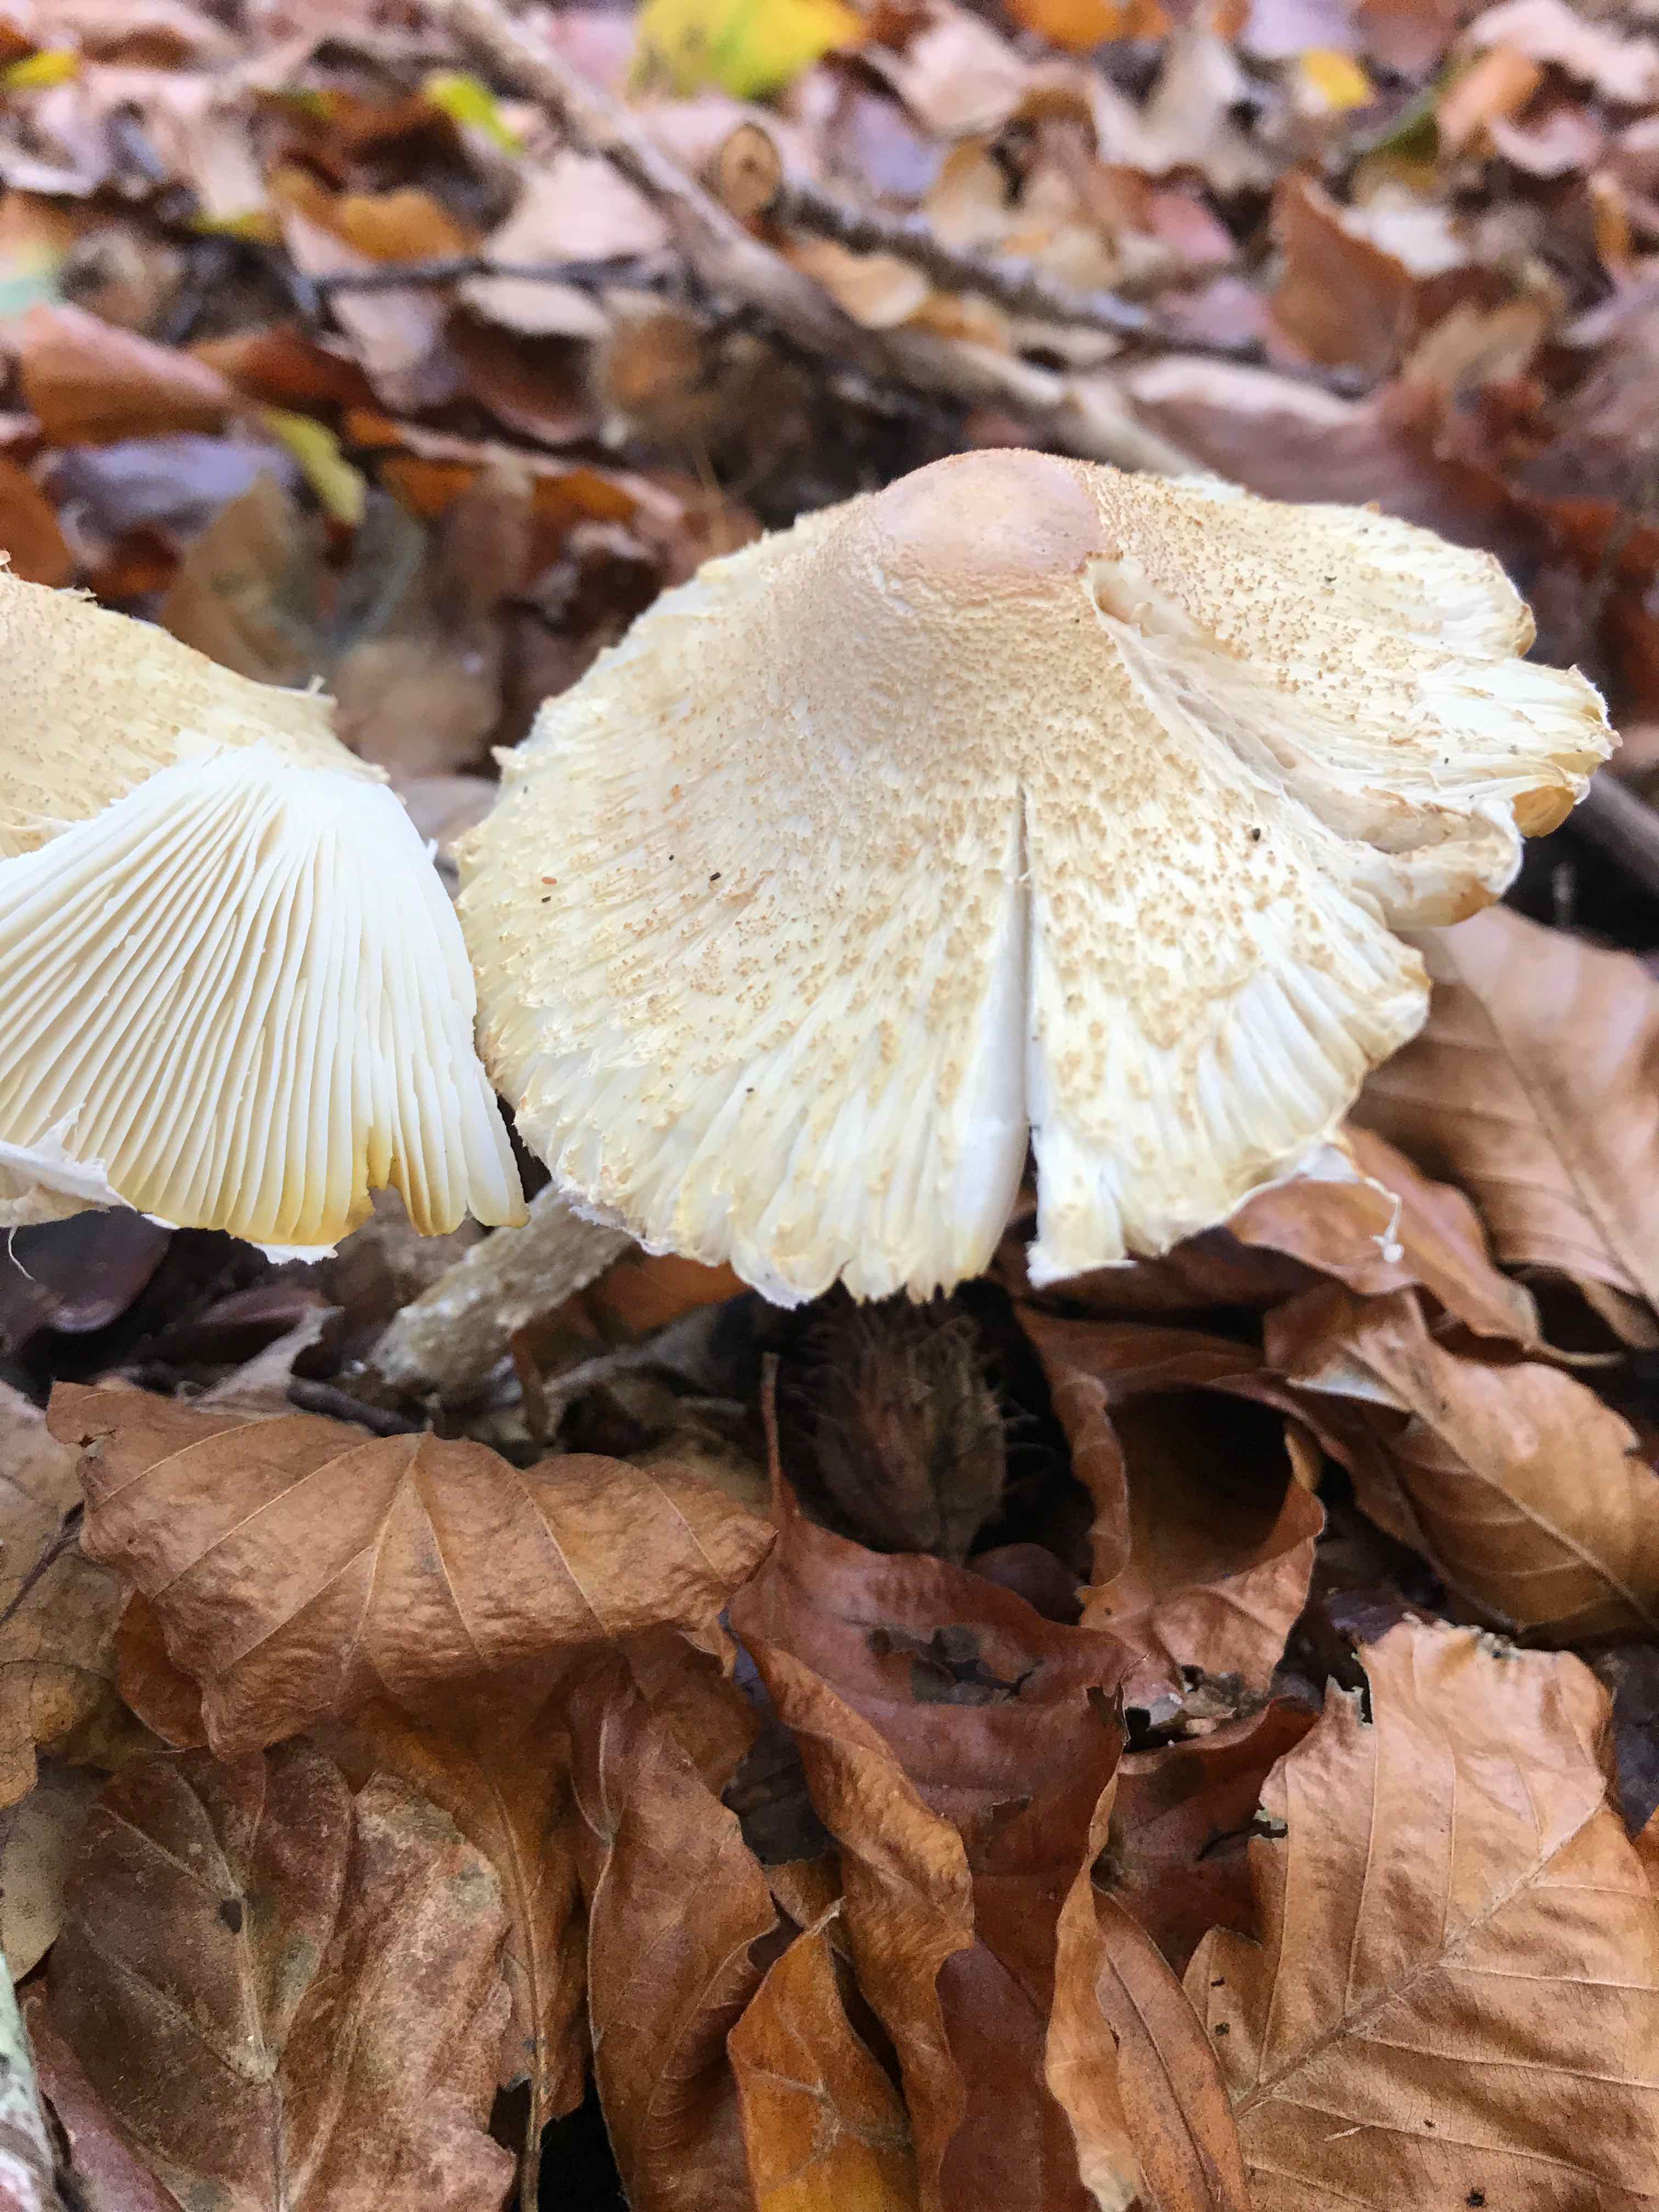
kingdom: Fungi
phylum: Basidiomycota
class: Agaricomycetes
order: Agaricales
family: Agaricaceae
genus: Lepiota
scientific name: Lepiota clypeolaria
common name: flosset parasolhat
